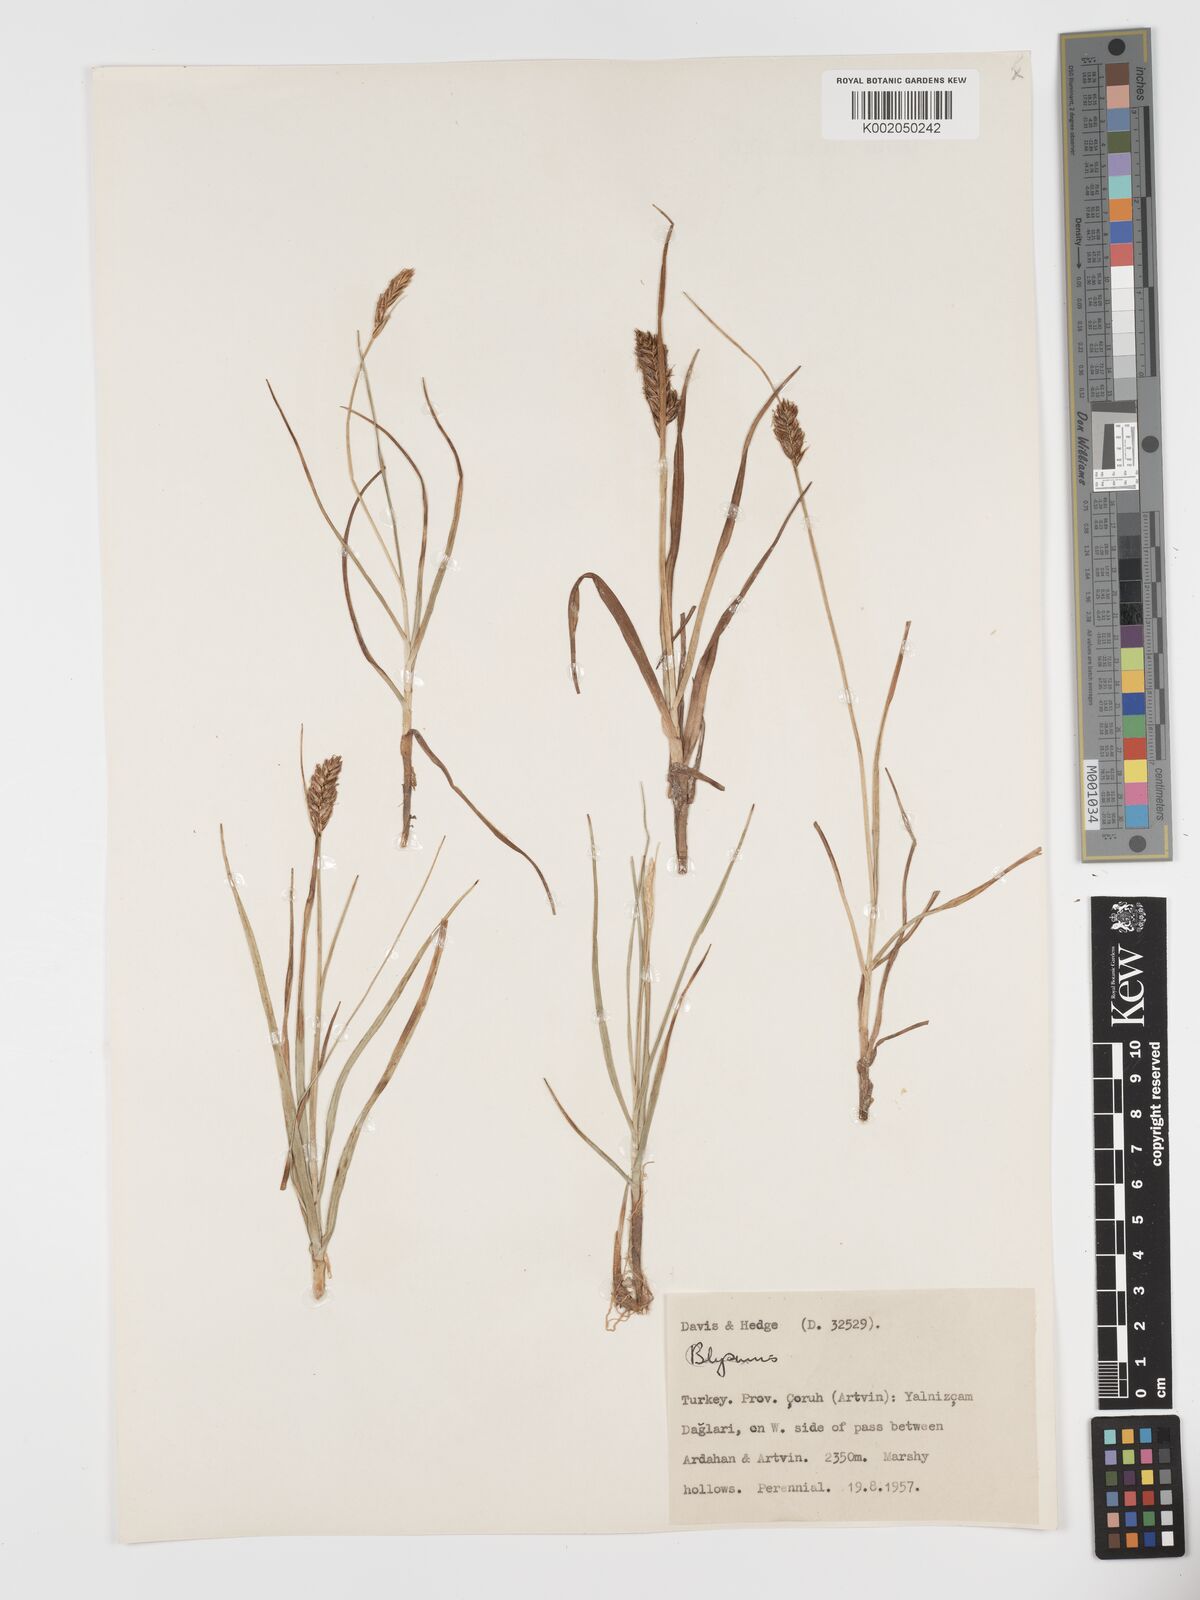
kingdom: Plantae
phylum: Tracheophyta
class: Liliopsida
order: Poales
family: Cyperaceae
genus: Blysmus
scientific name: Blysmus compressus
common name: Flat-sedge
